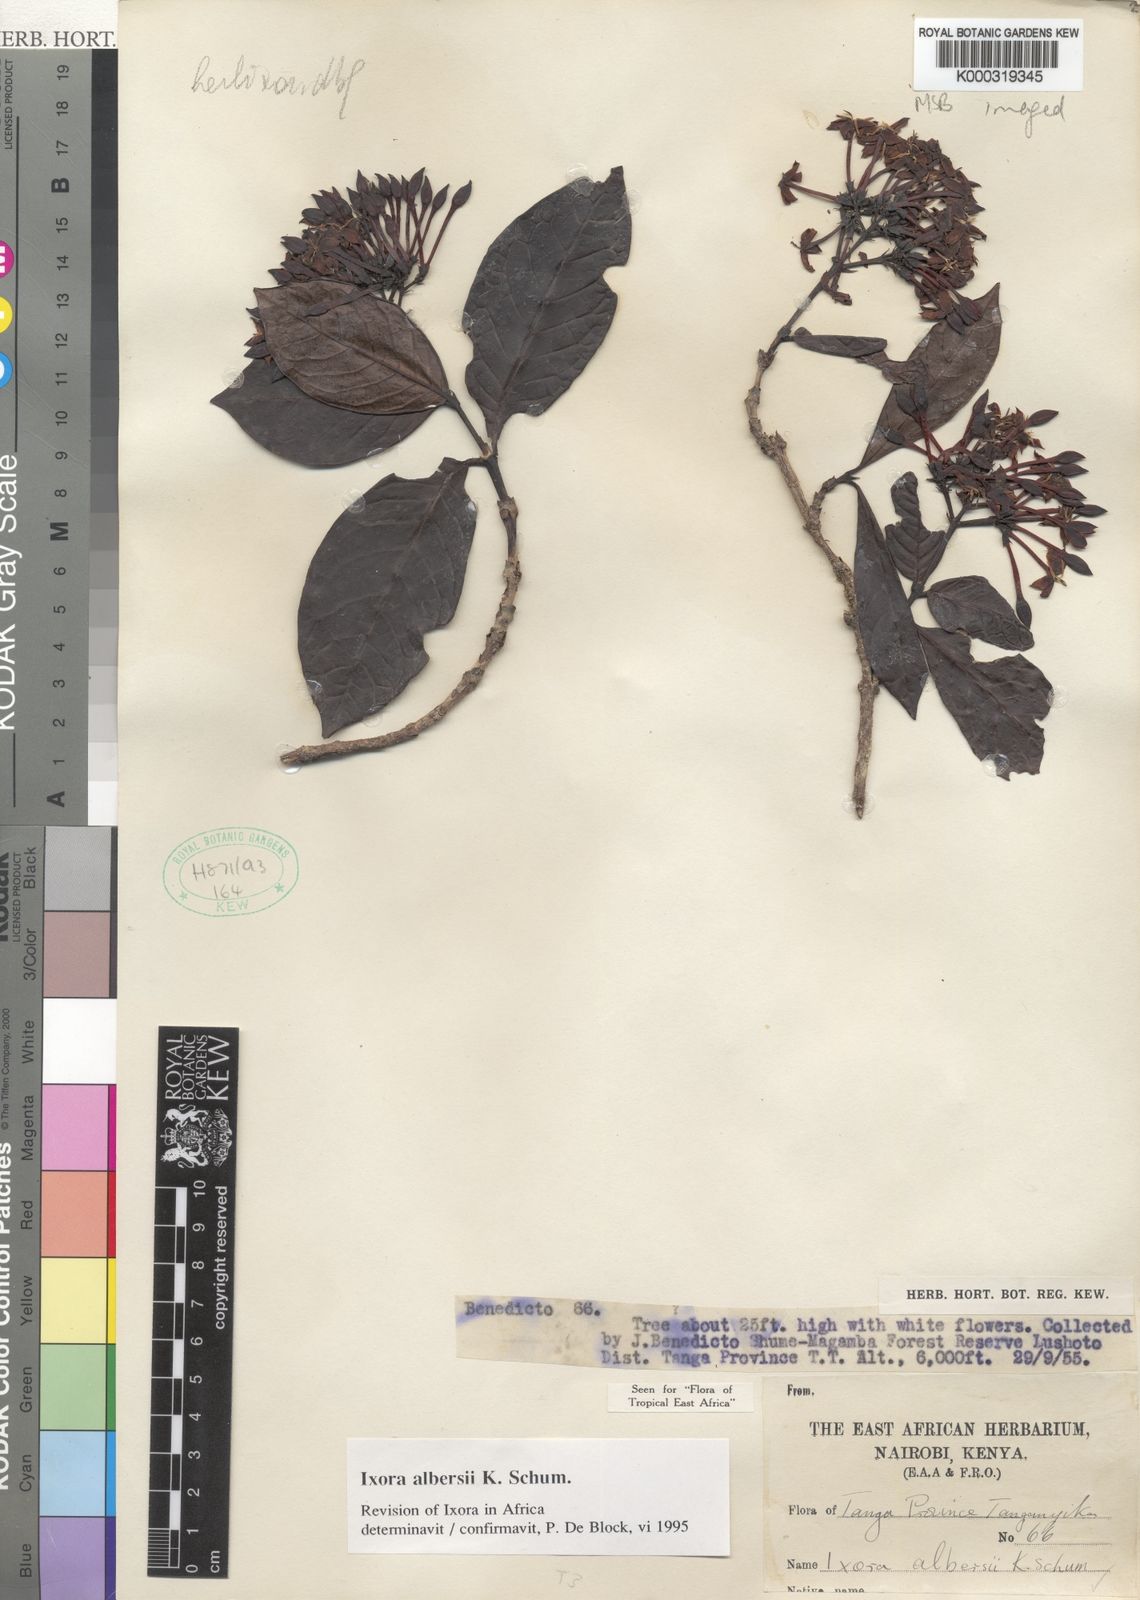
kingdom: Plantae
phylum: Tracheophyta
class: Magnoliopsida
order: Gentianales
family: Rubiaceae
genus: Ixora
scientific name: Ixora albersii
